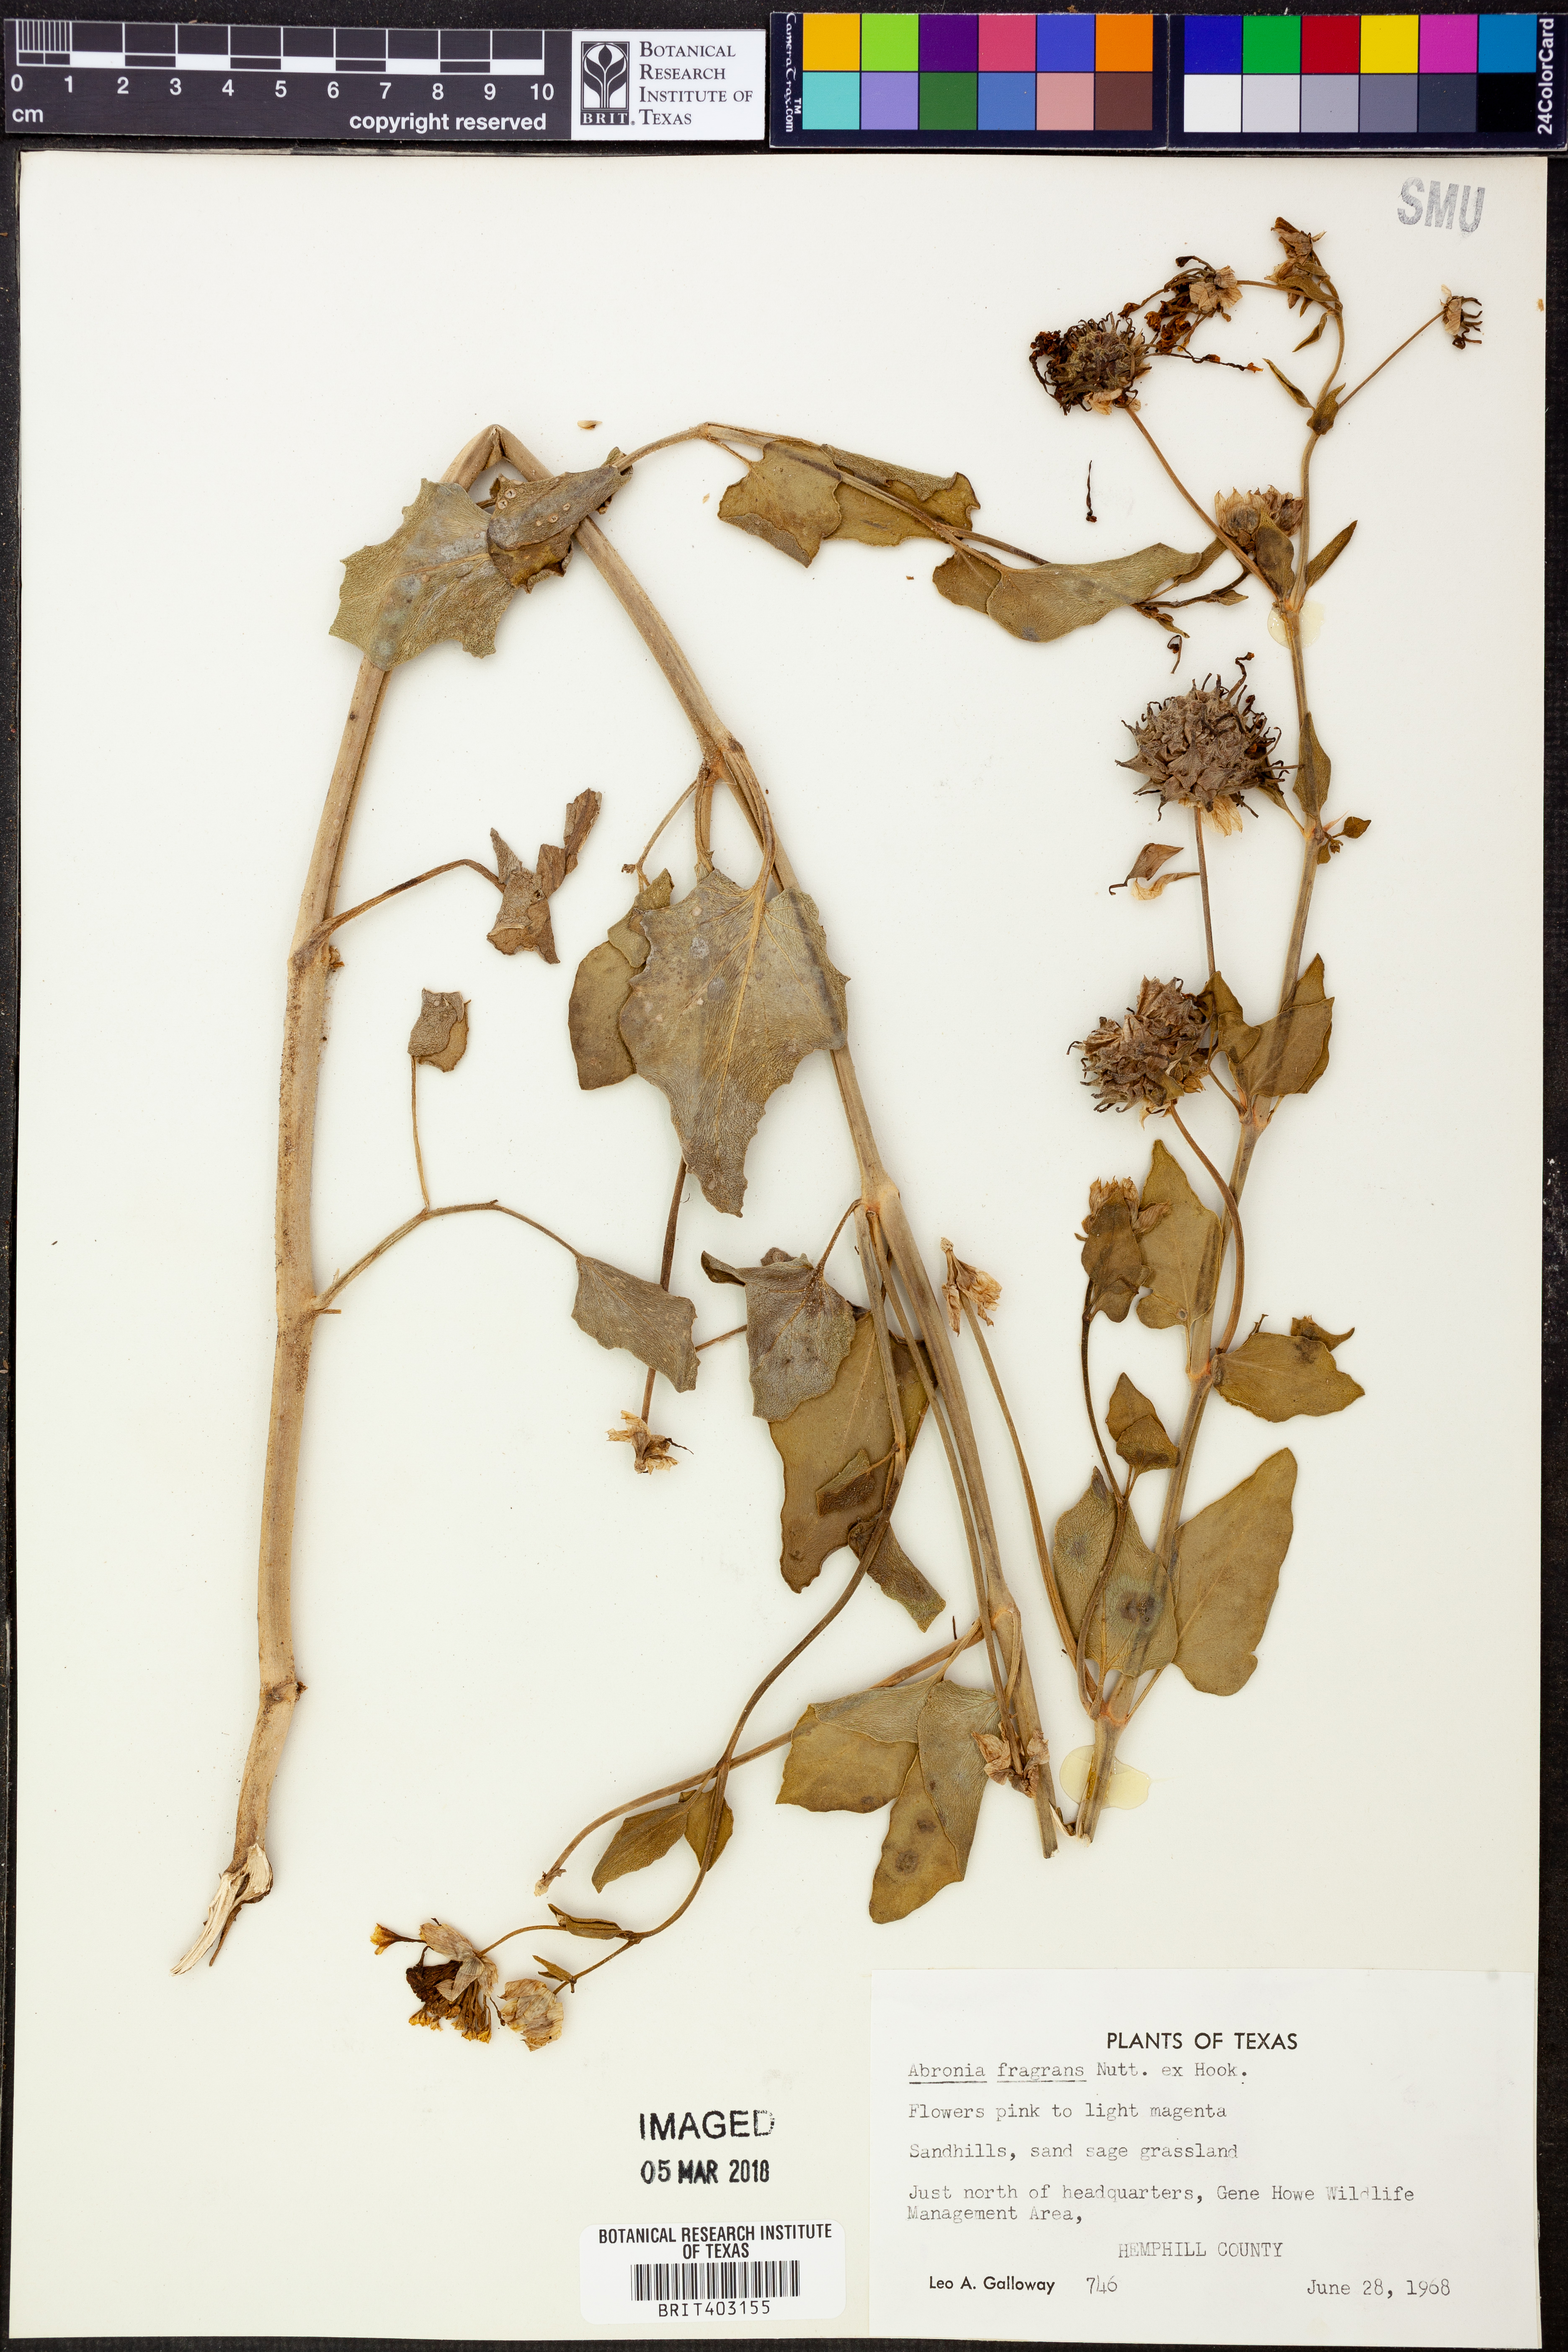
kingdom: Plantae
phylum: Tracheophyta
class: Magnoliopsida
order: Caryophyllales
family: Nyctaginaceae
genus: Abronia
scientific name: Abronia fragrans
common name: Fragrant sand-verbena
